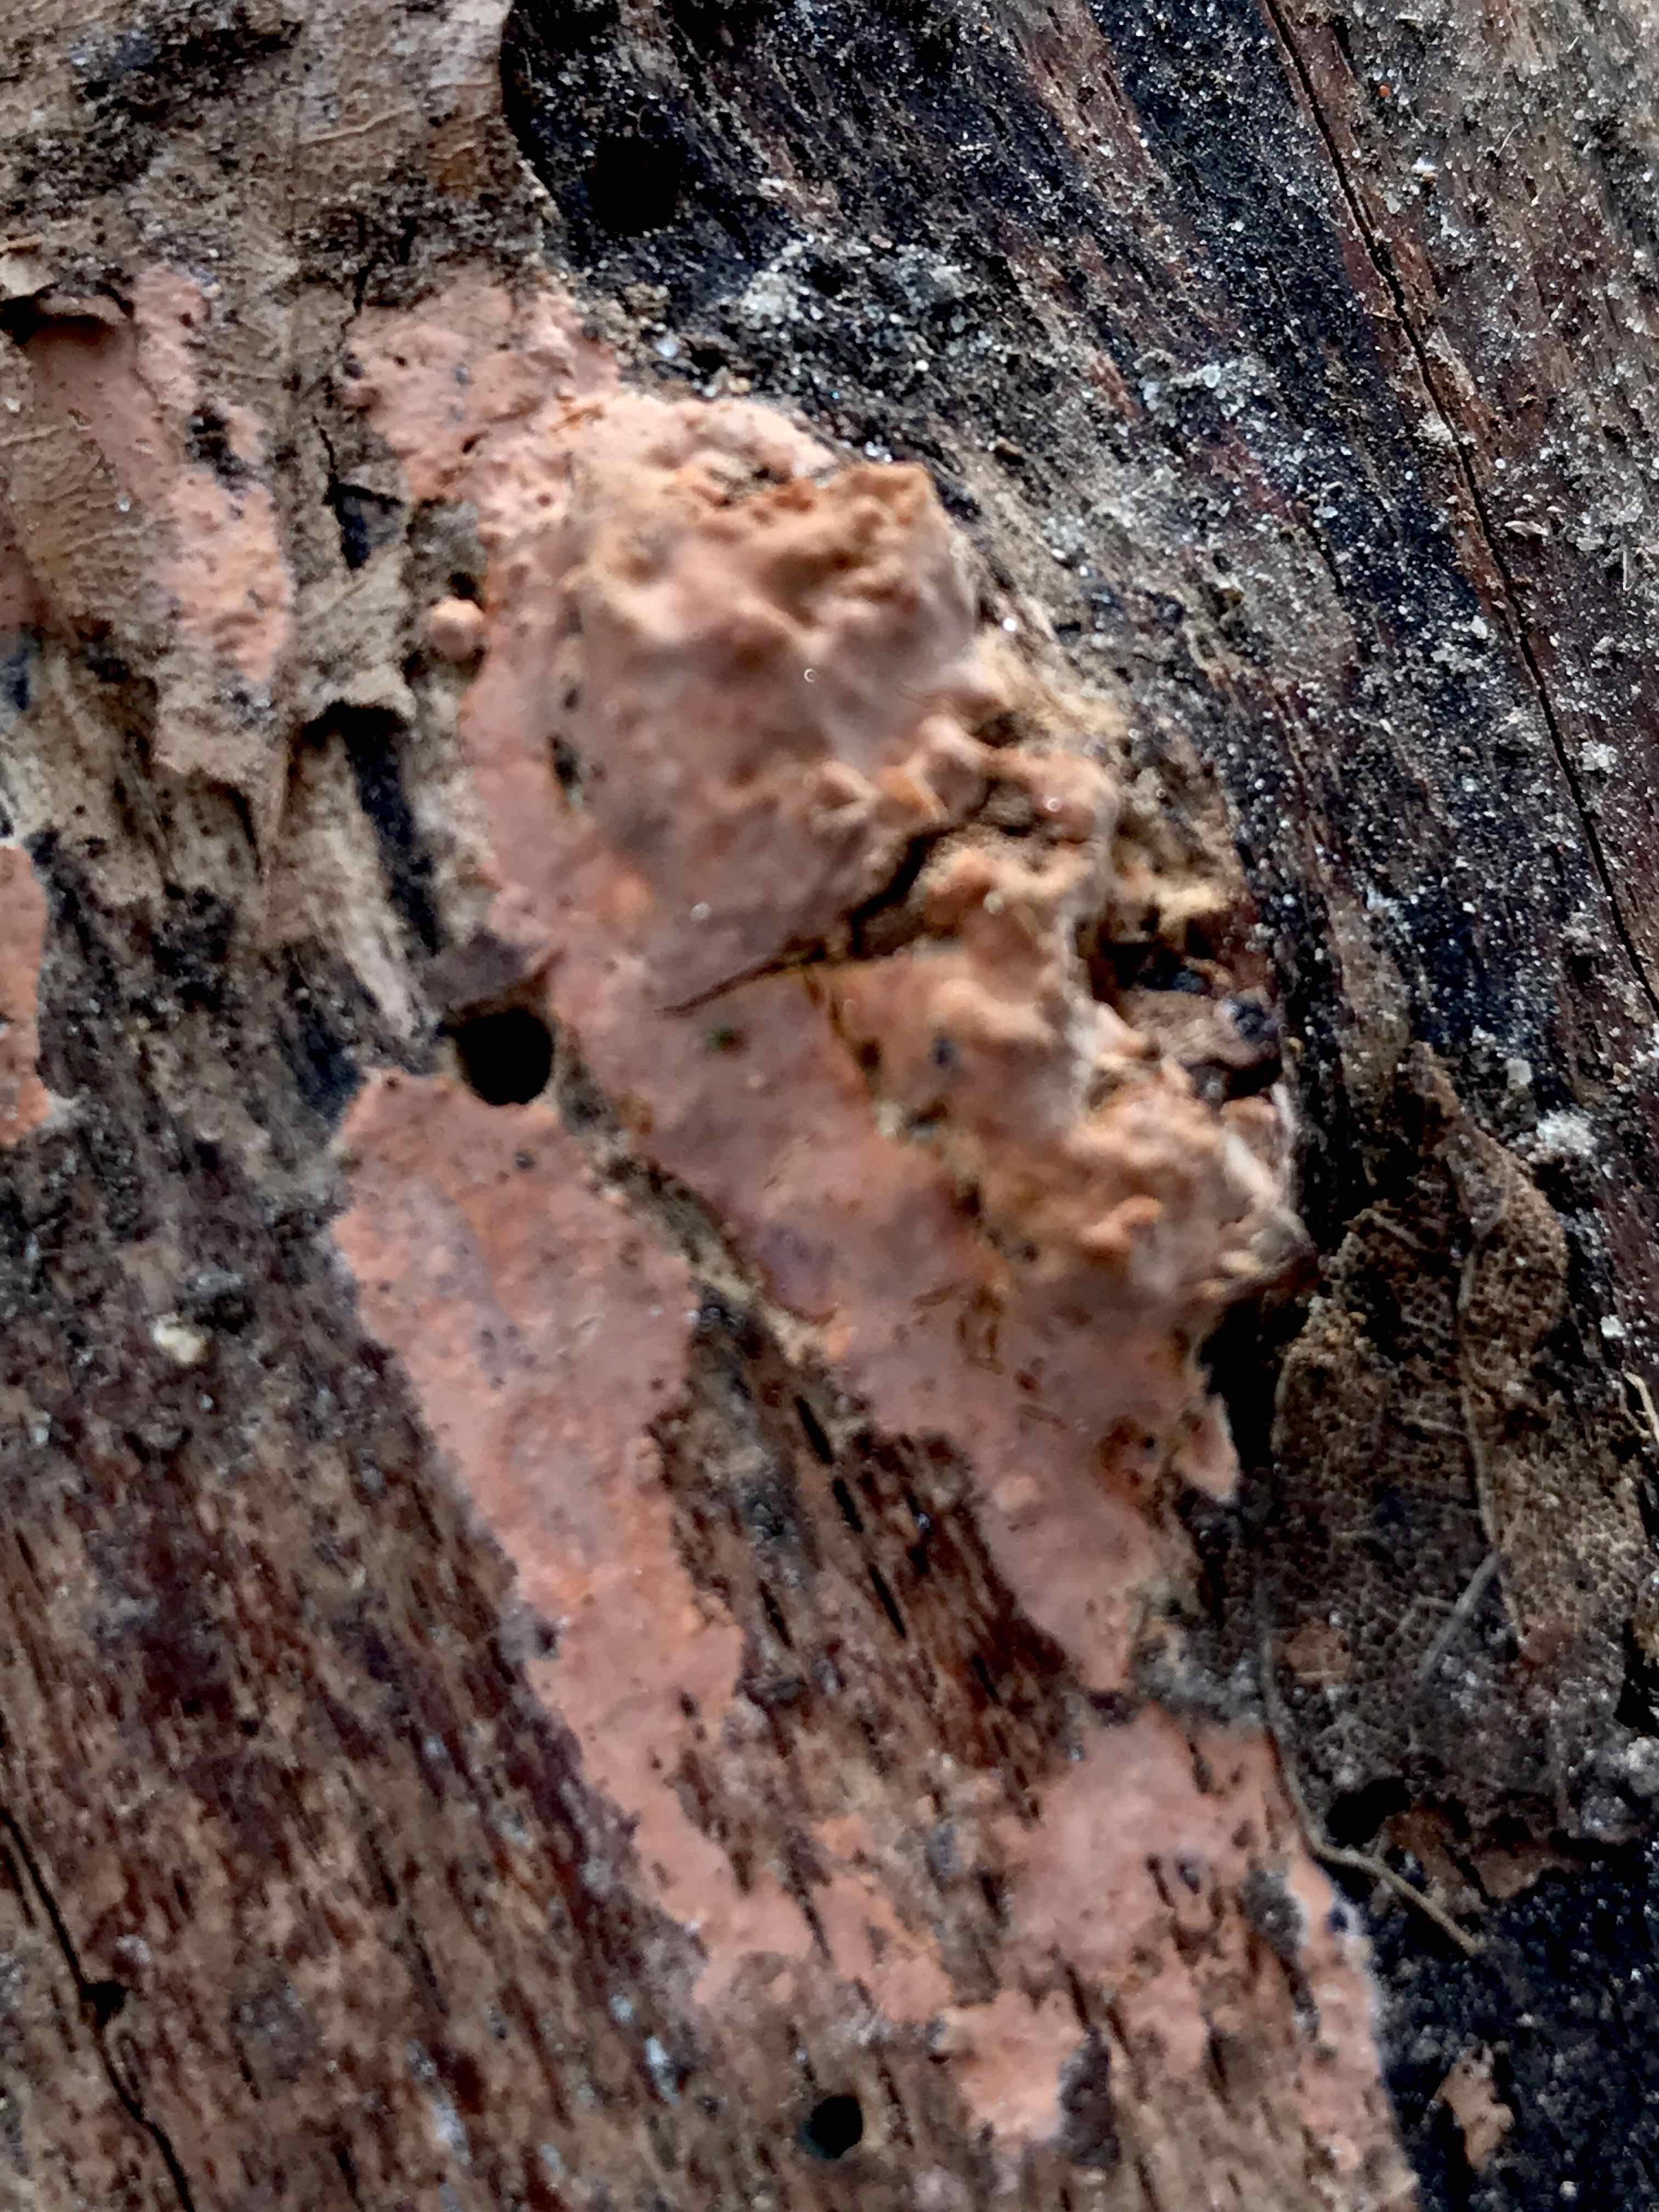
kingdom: Fungi
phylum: Basidiomycota
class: Agaricomycetes
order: Russulales
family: Peniophoraceae
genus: Peniophora
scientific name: Peniophora incarnata
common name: laksefarvet voksskind
